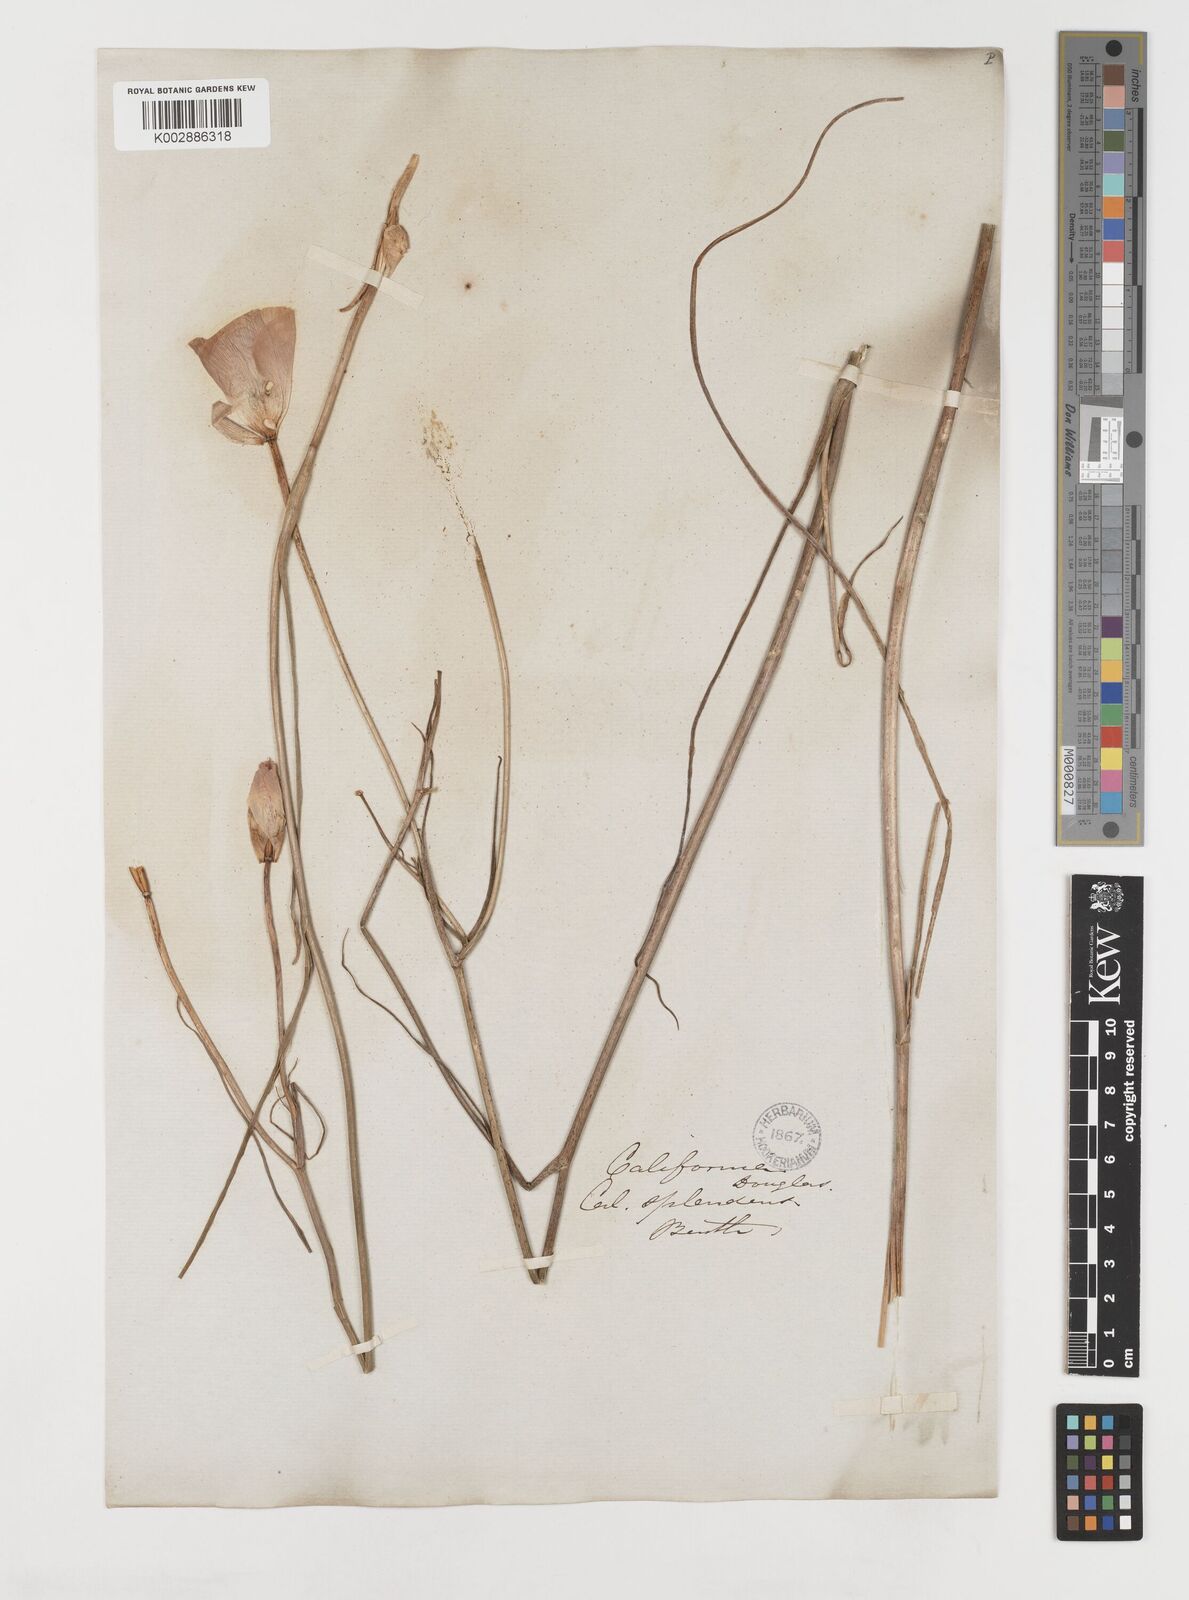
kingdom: Plantae
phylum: Tracheophyta
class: Liliopsida
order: Liliales
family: Liliaceae
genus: Calochortus
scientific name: Calochortus splendens
